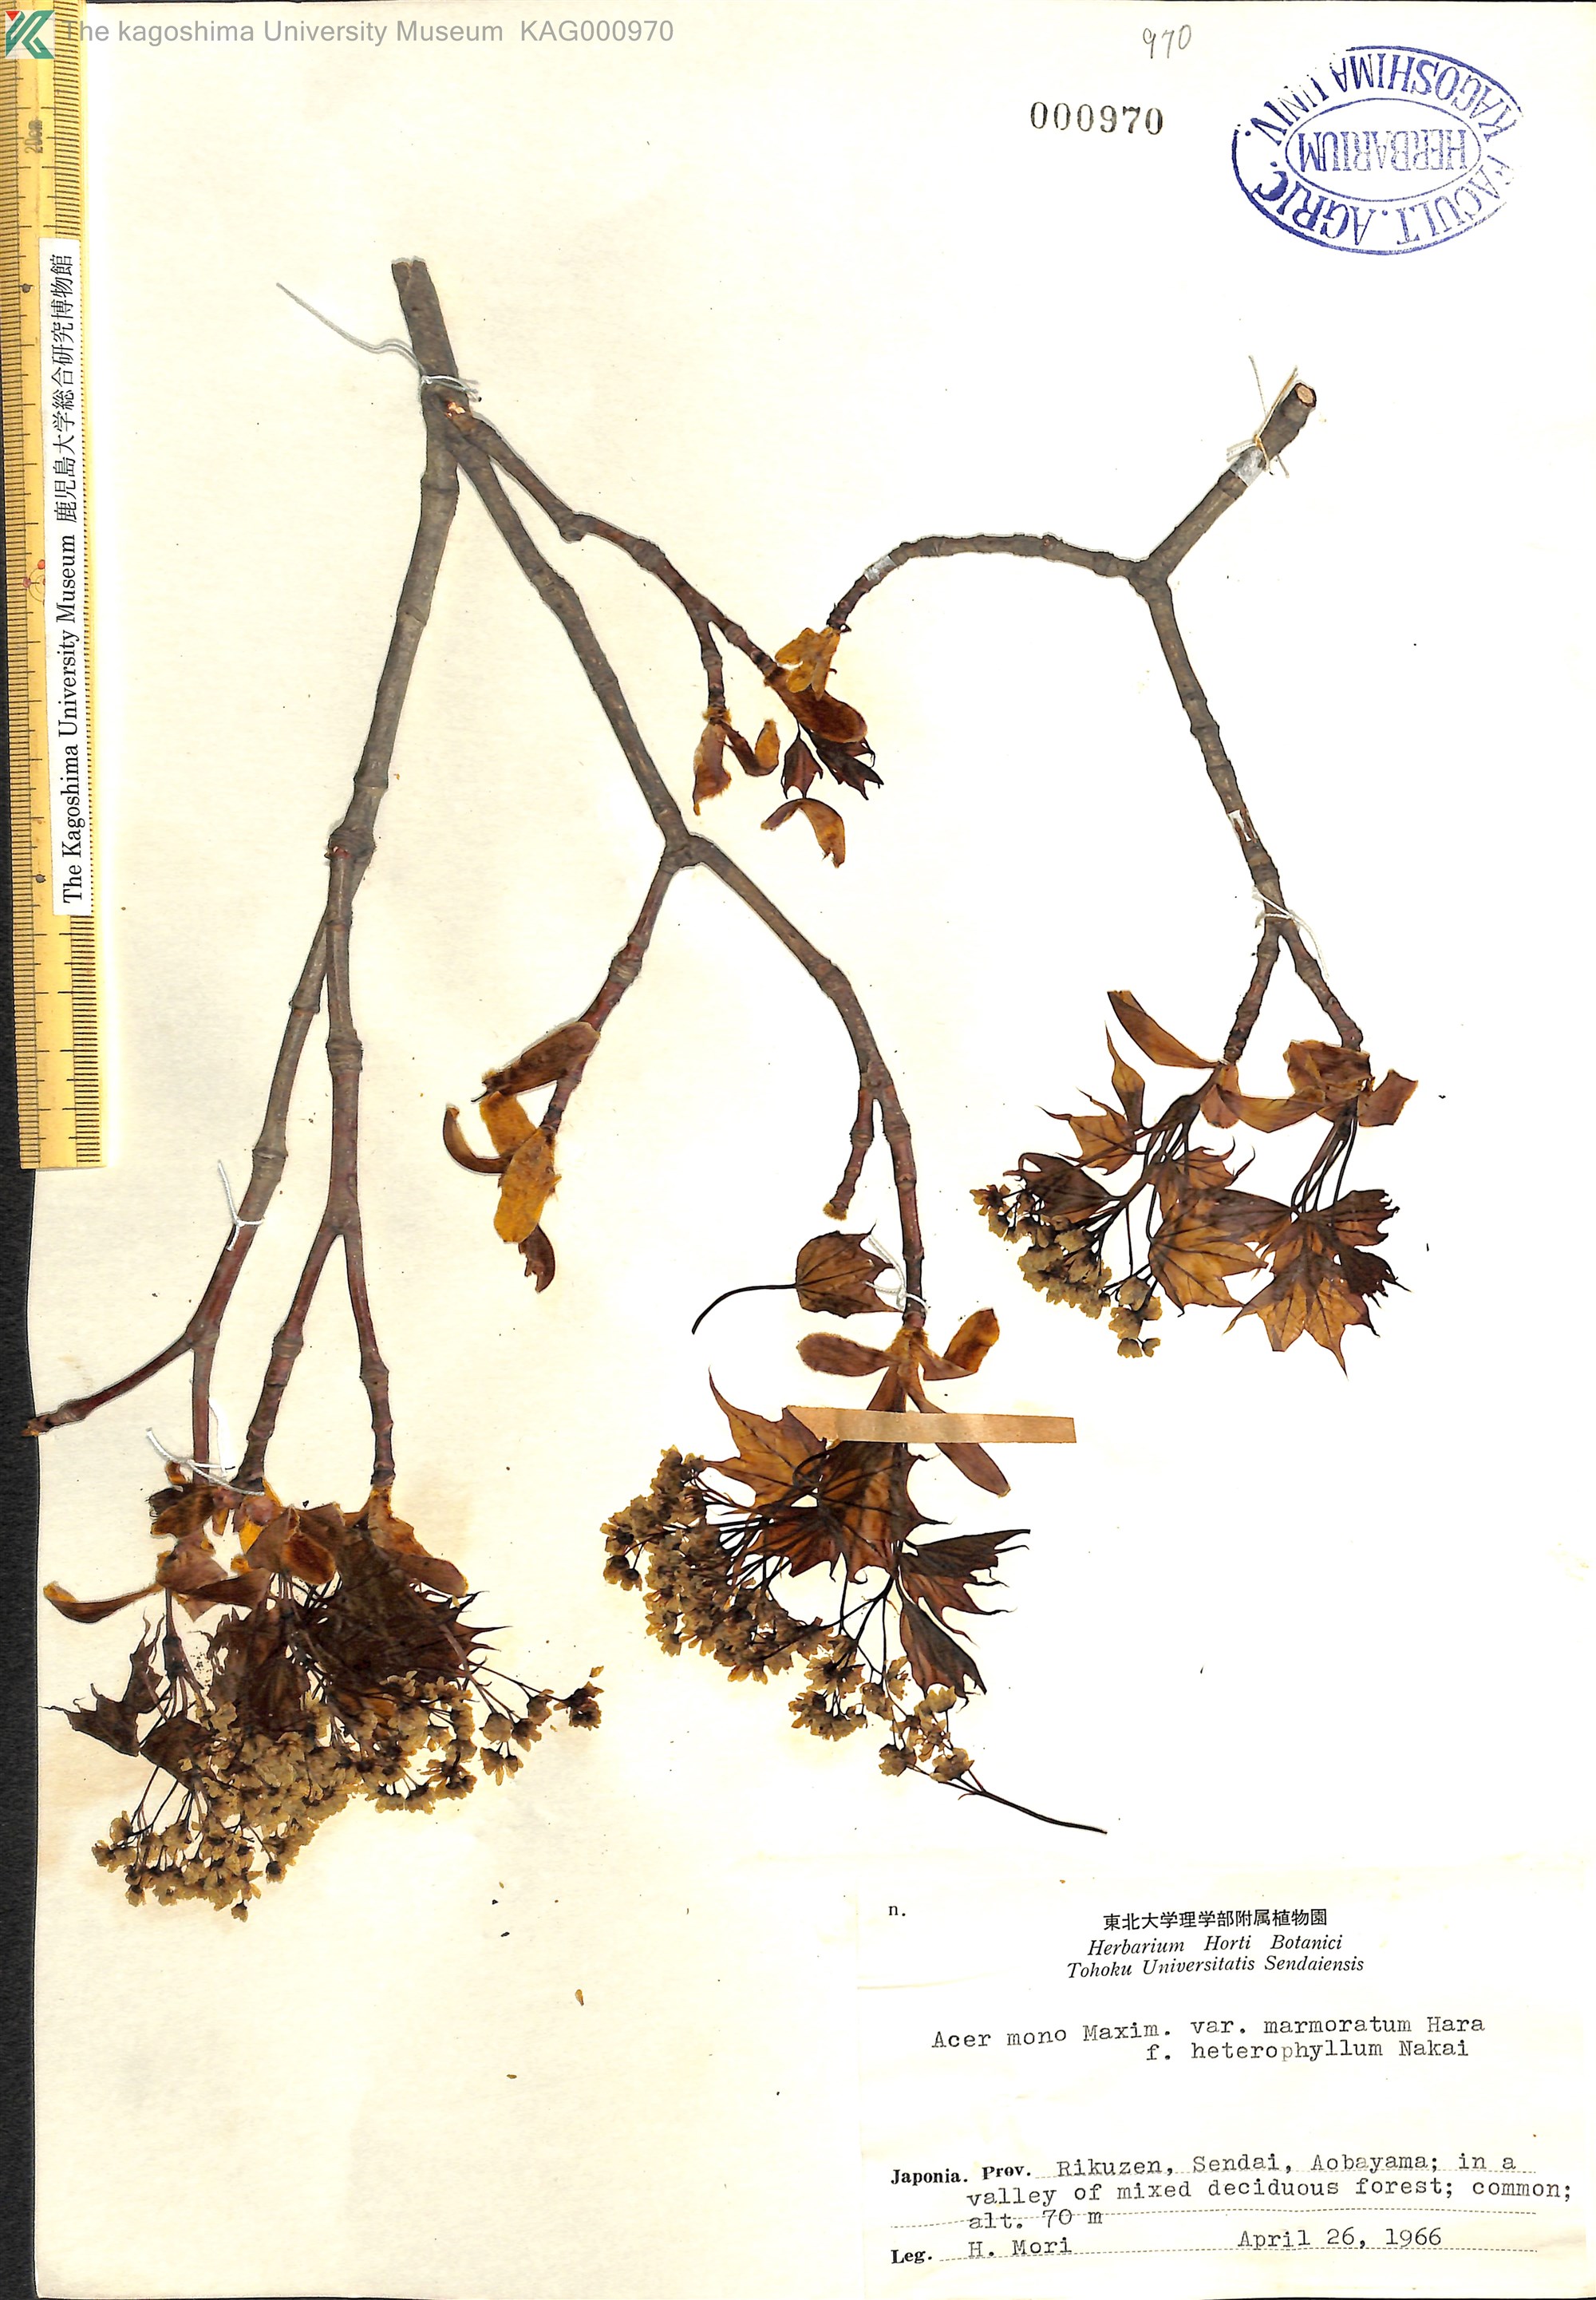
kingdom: Plantae
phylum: Tracheophyta
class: Magnoliopsida
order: Sapindales
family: Sapindaceae
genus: Acer
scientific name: Acer pictum
